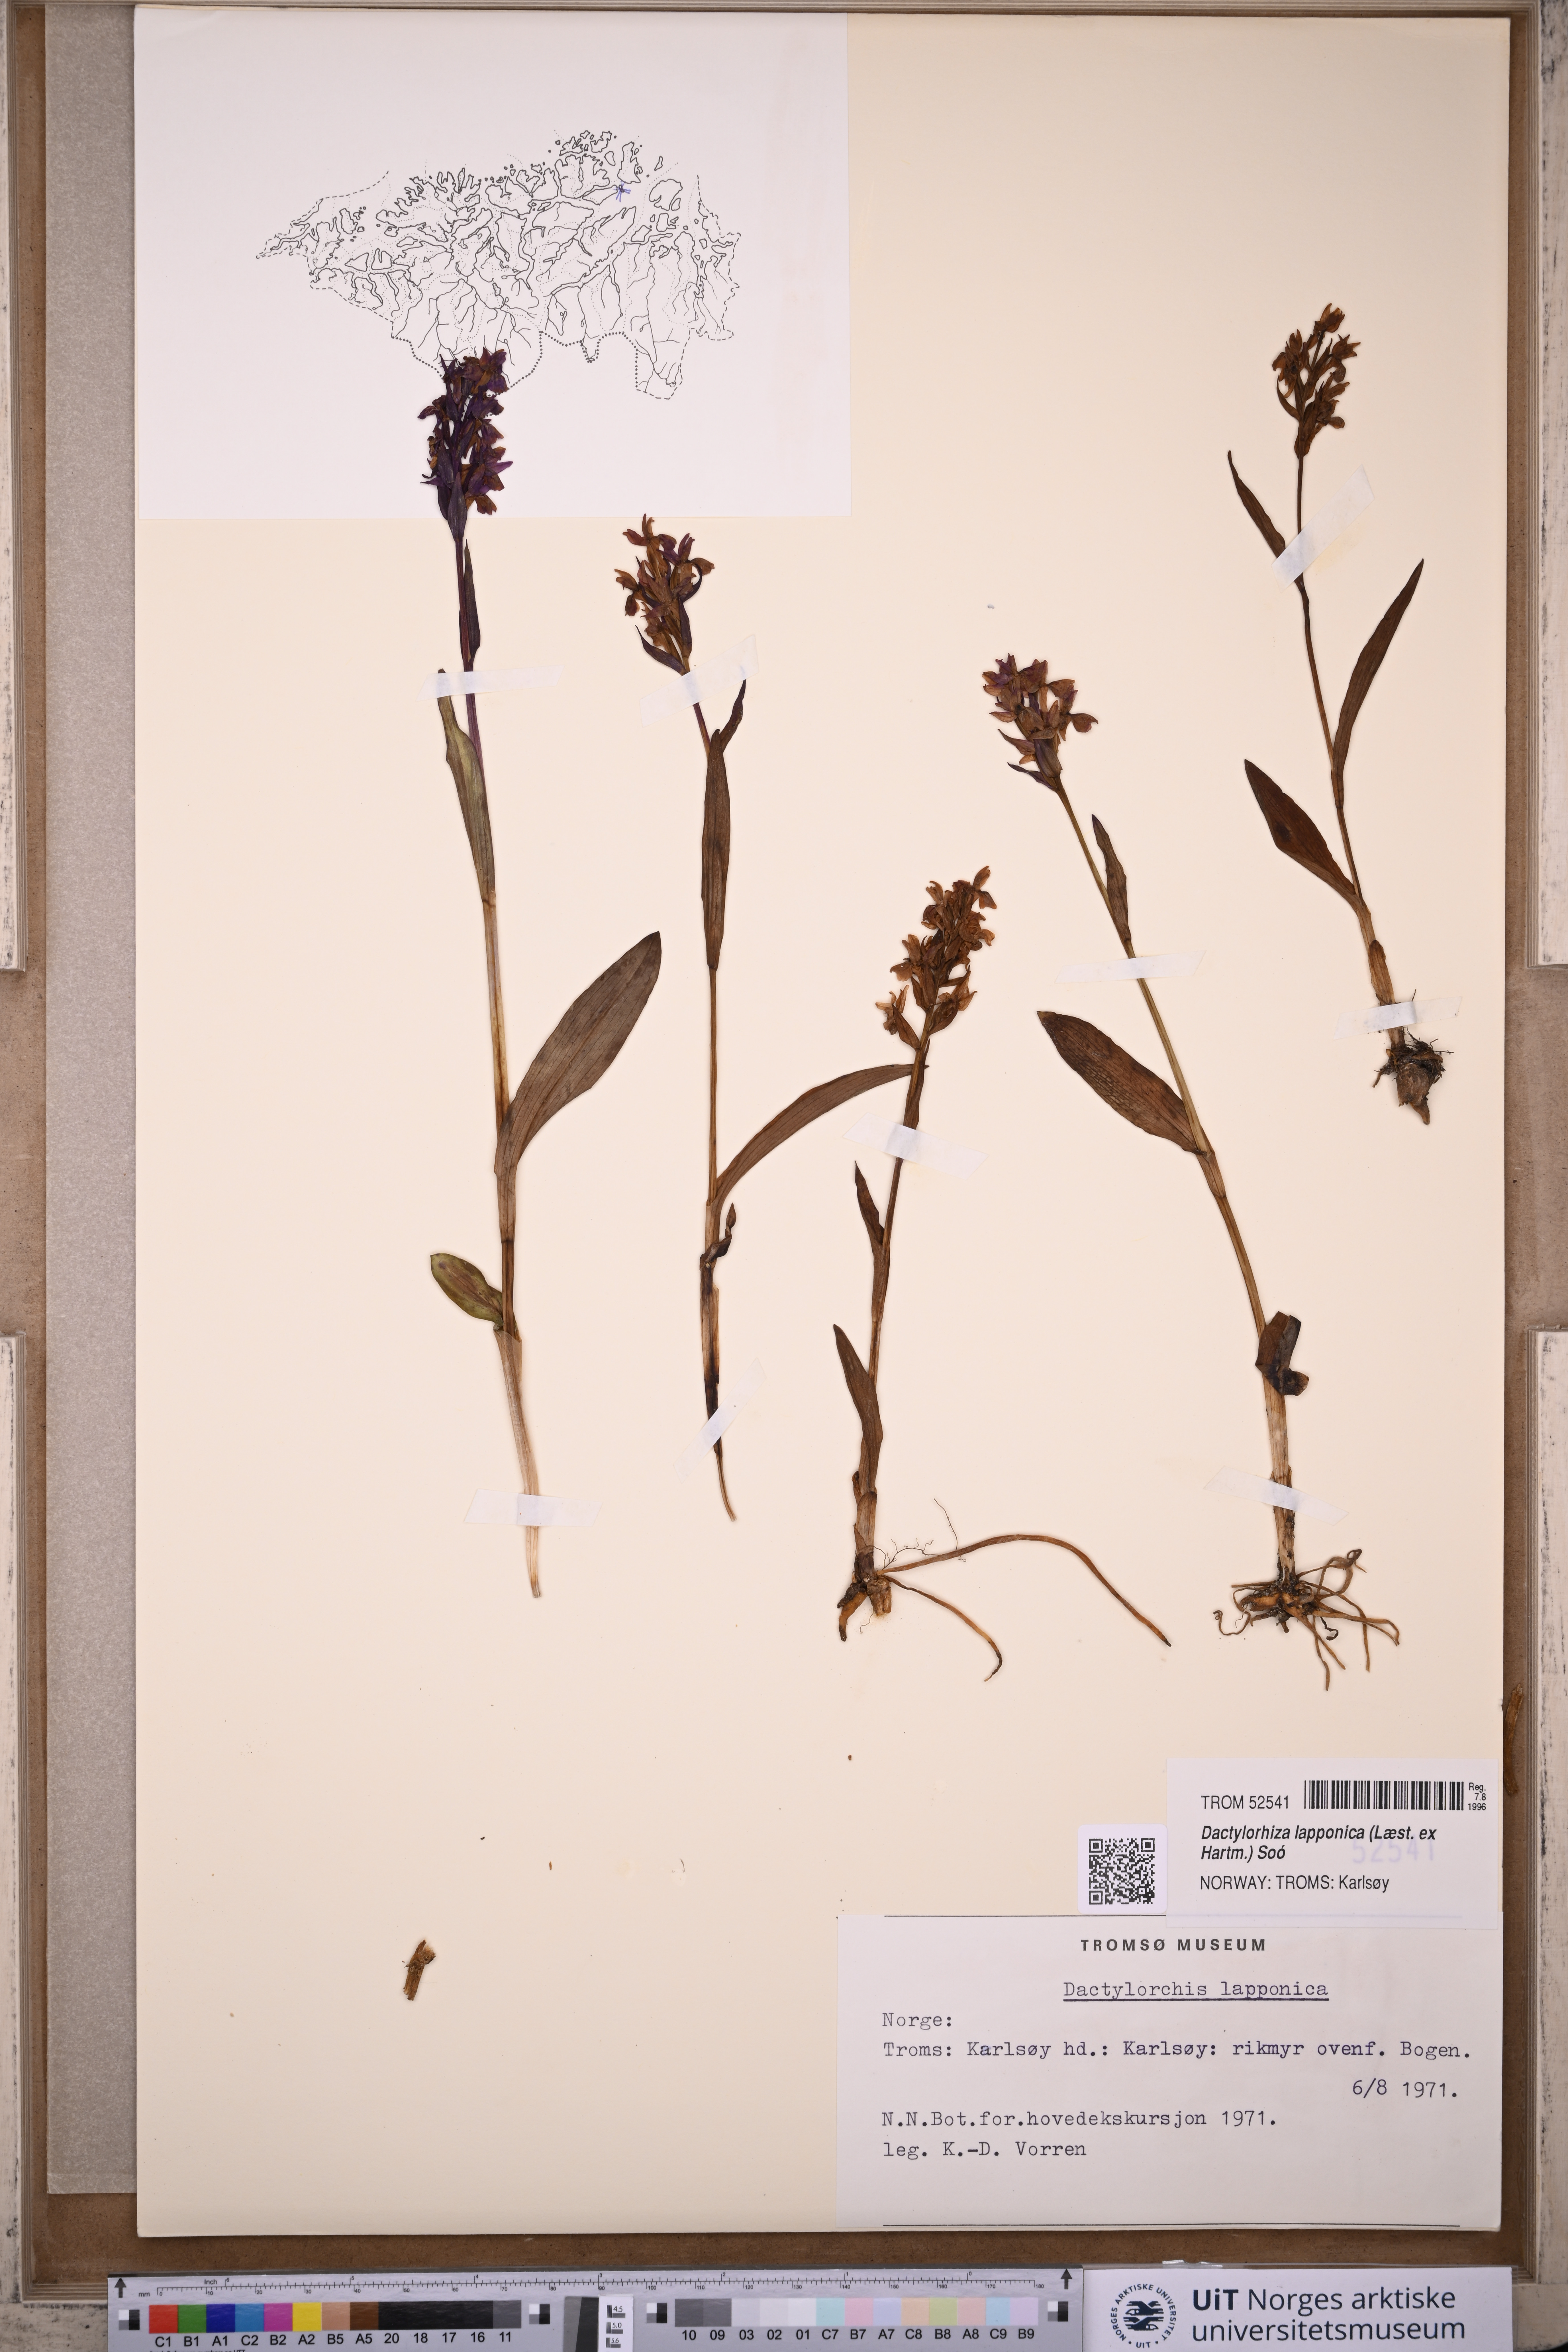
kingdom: Plantae
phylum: Tracheophyta
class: Liliopsida
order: Asparagales
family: Orchidaceae
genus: Dactylorhiza
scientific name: Dactylorhiza majalis
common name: Marsh orchid
